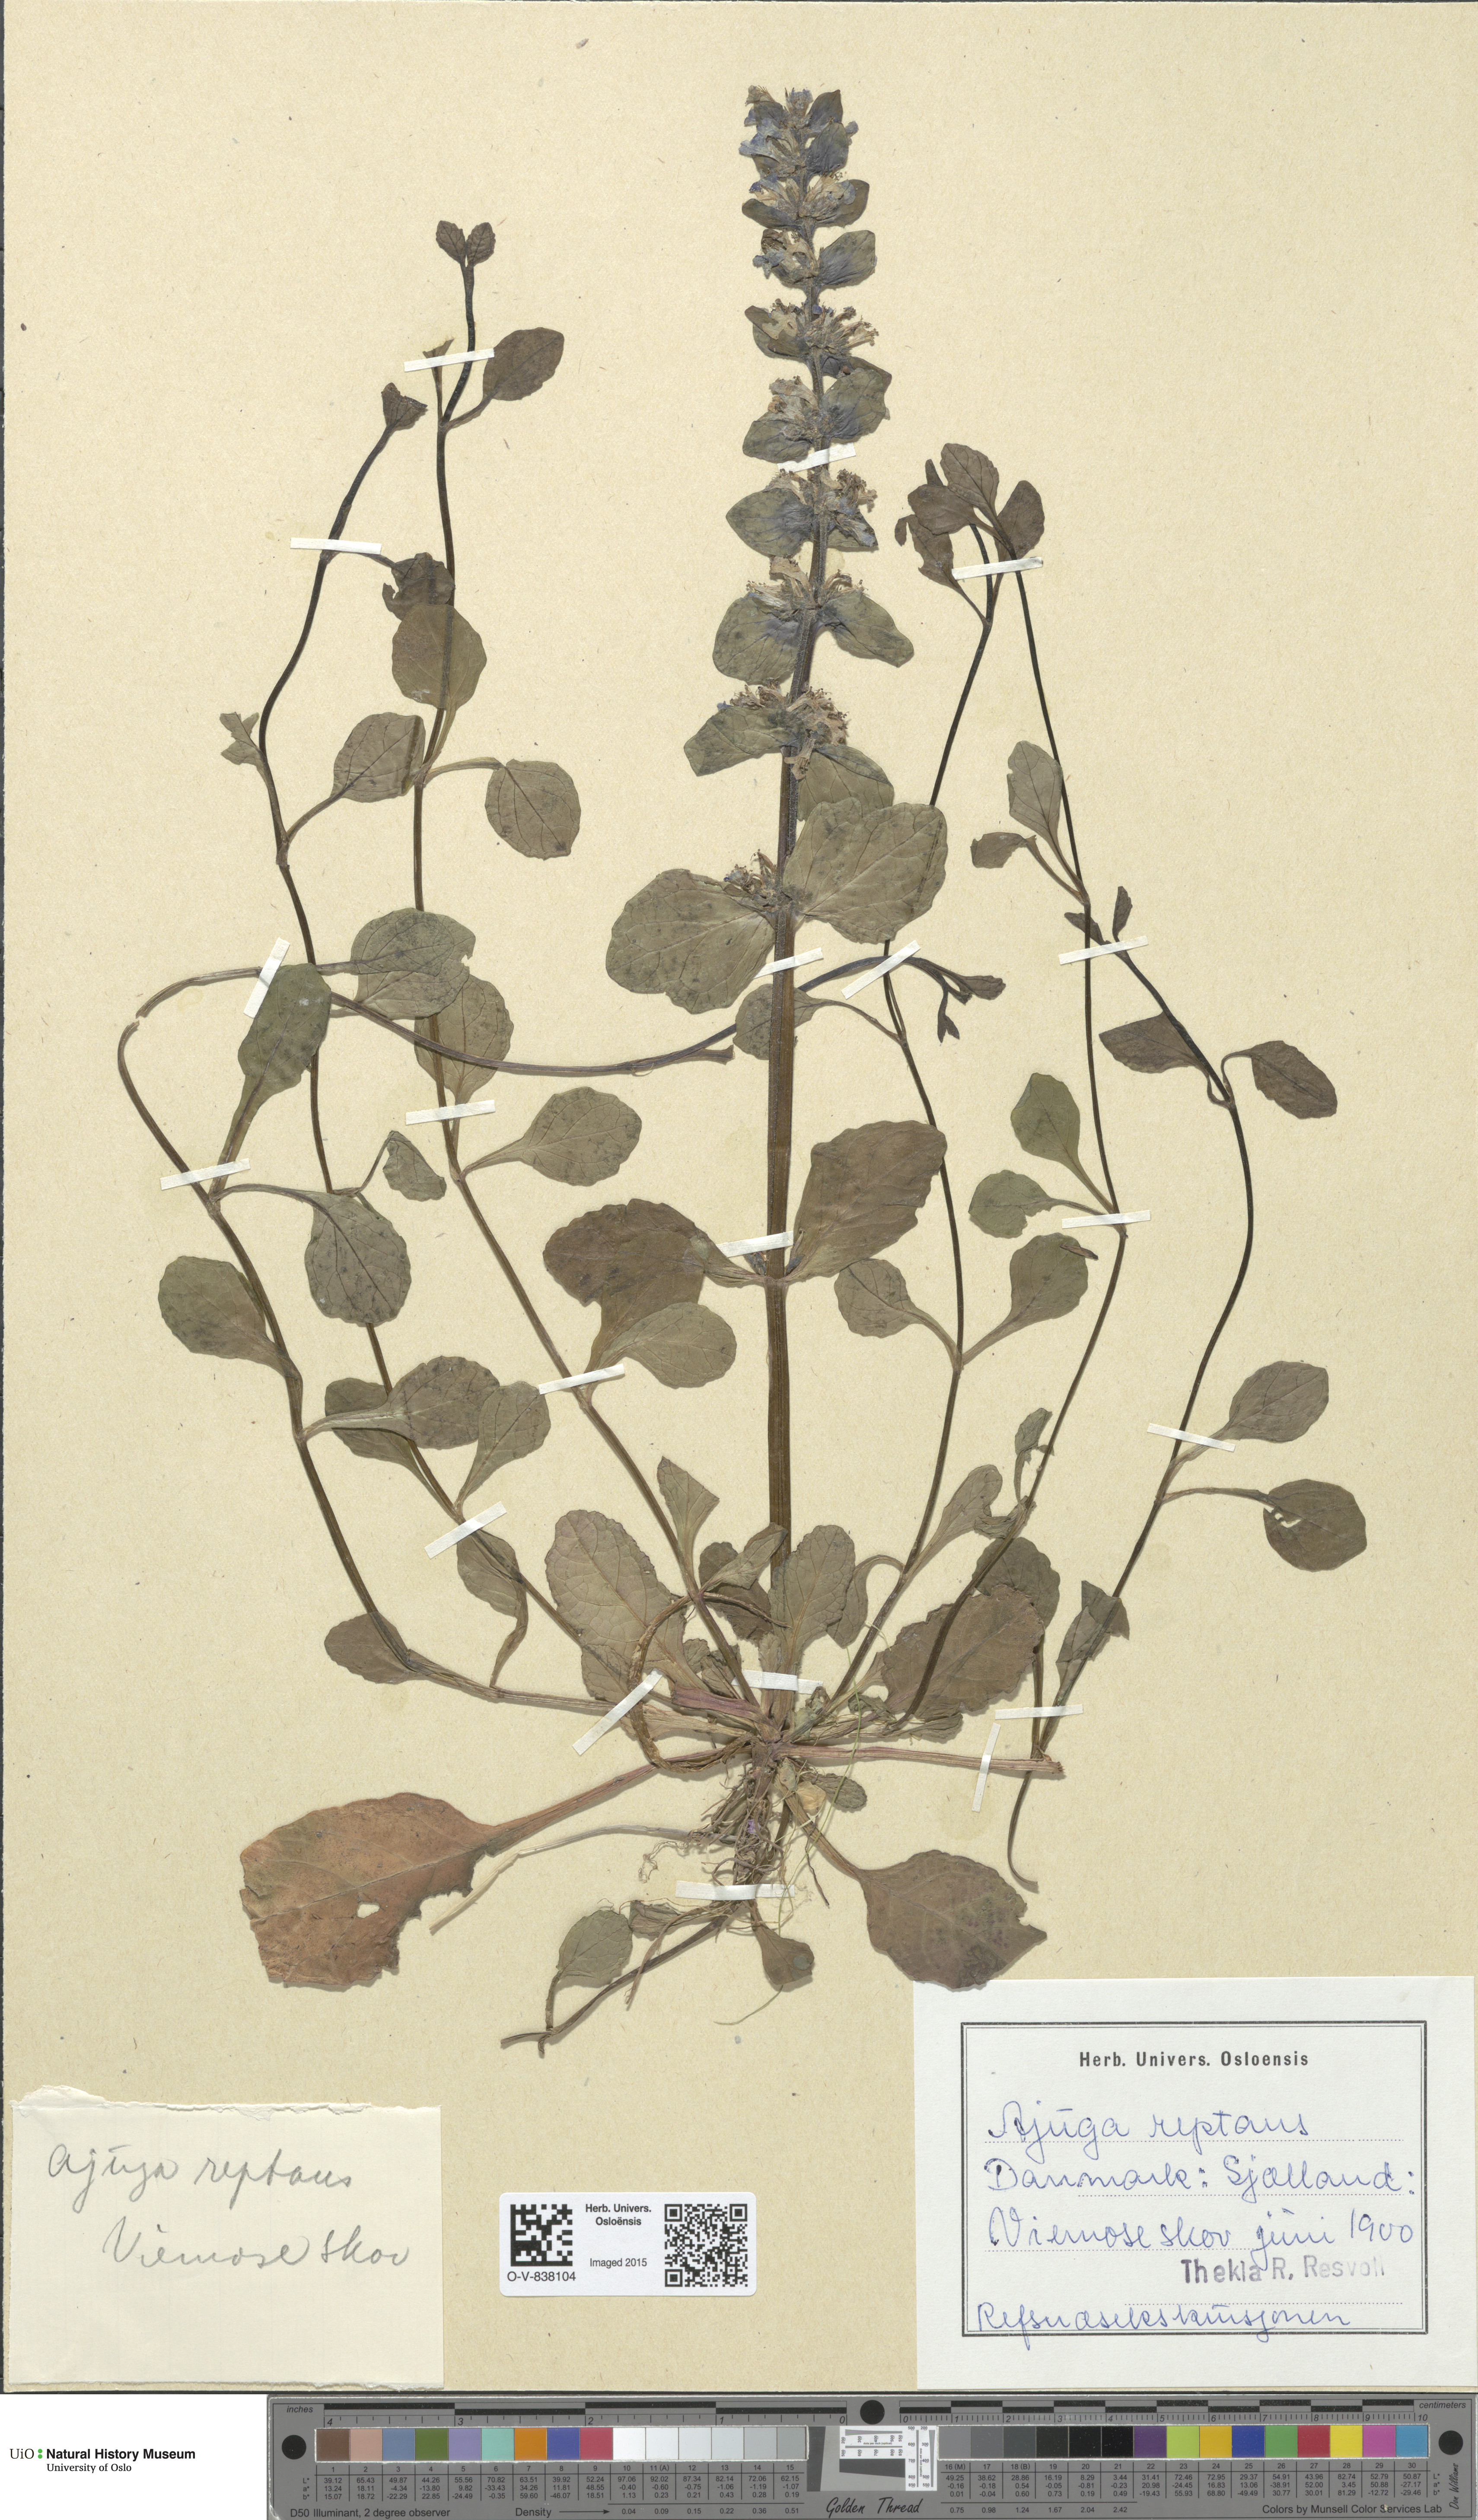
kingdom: Plantae
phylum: Tracheophyta
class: Magnoliopsida
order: Lamiales
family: Lamiaceae
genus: Ajuga
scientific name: Ajuga reptans
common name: Bugle
